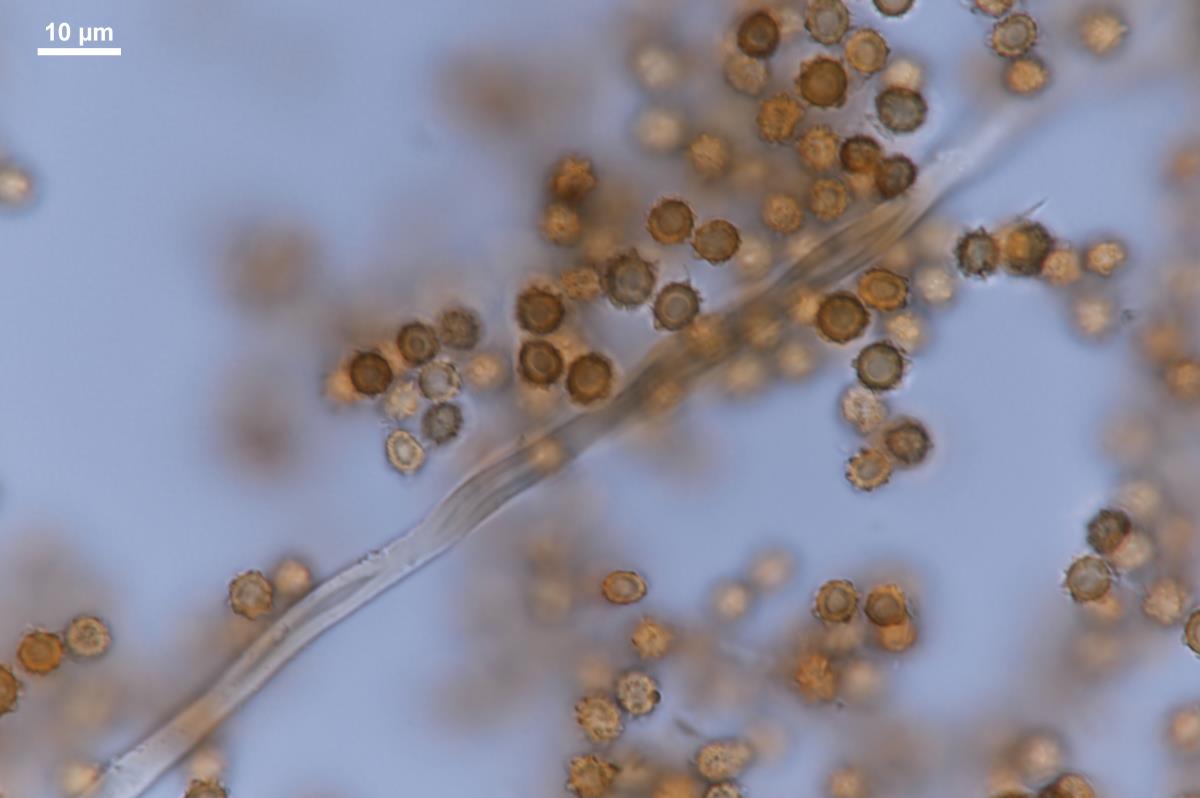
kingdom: Fungi
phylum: Basidiomycota
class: Agaricomycetes
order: Agaricales
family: Agaricaceae
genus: Tulostoma
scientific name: Tulostoma adhaerens
